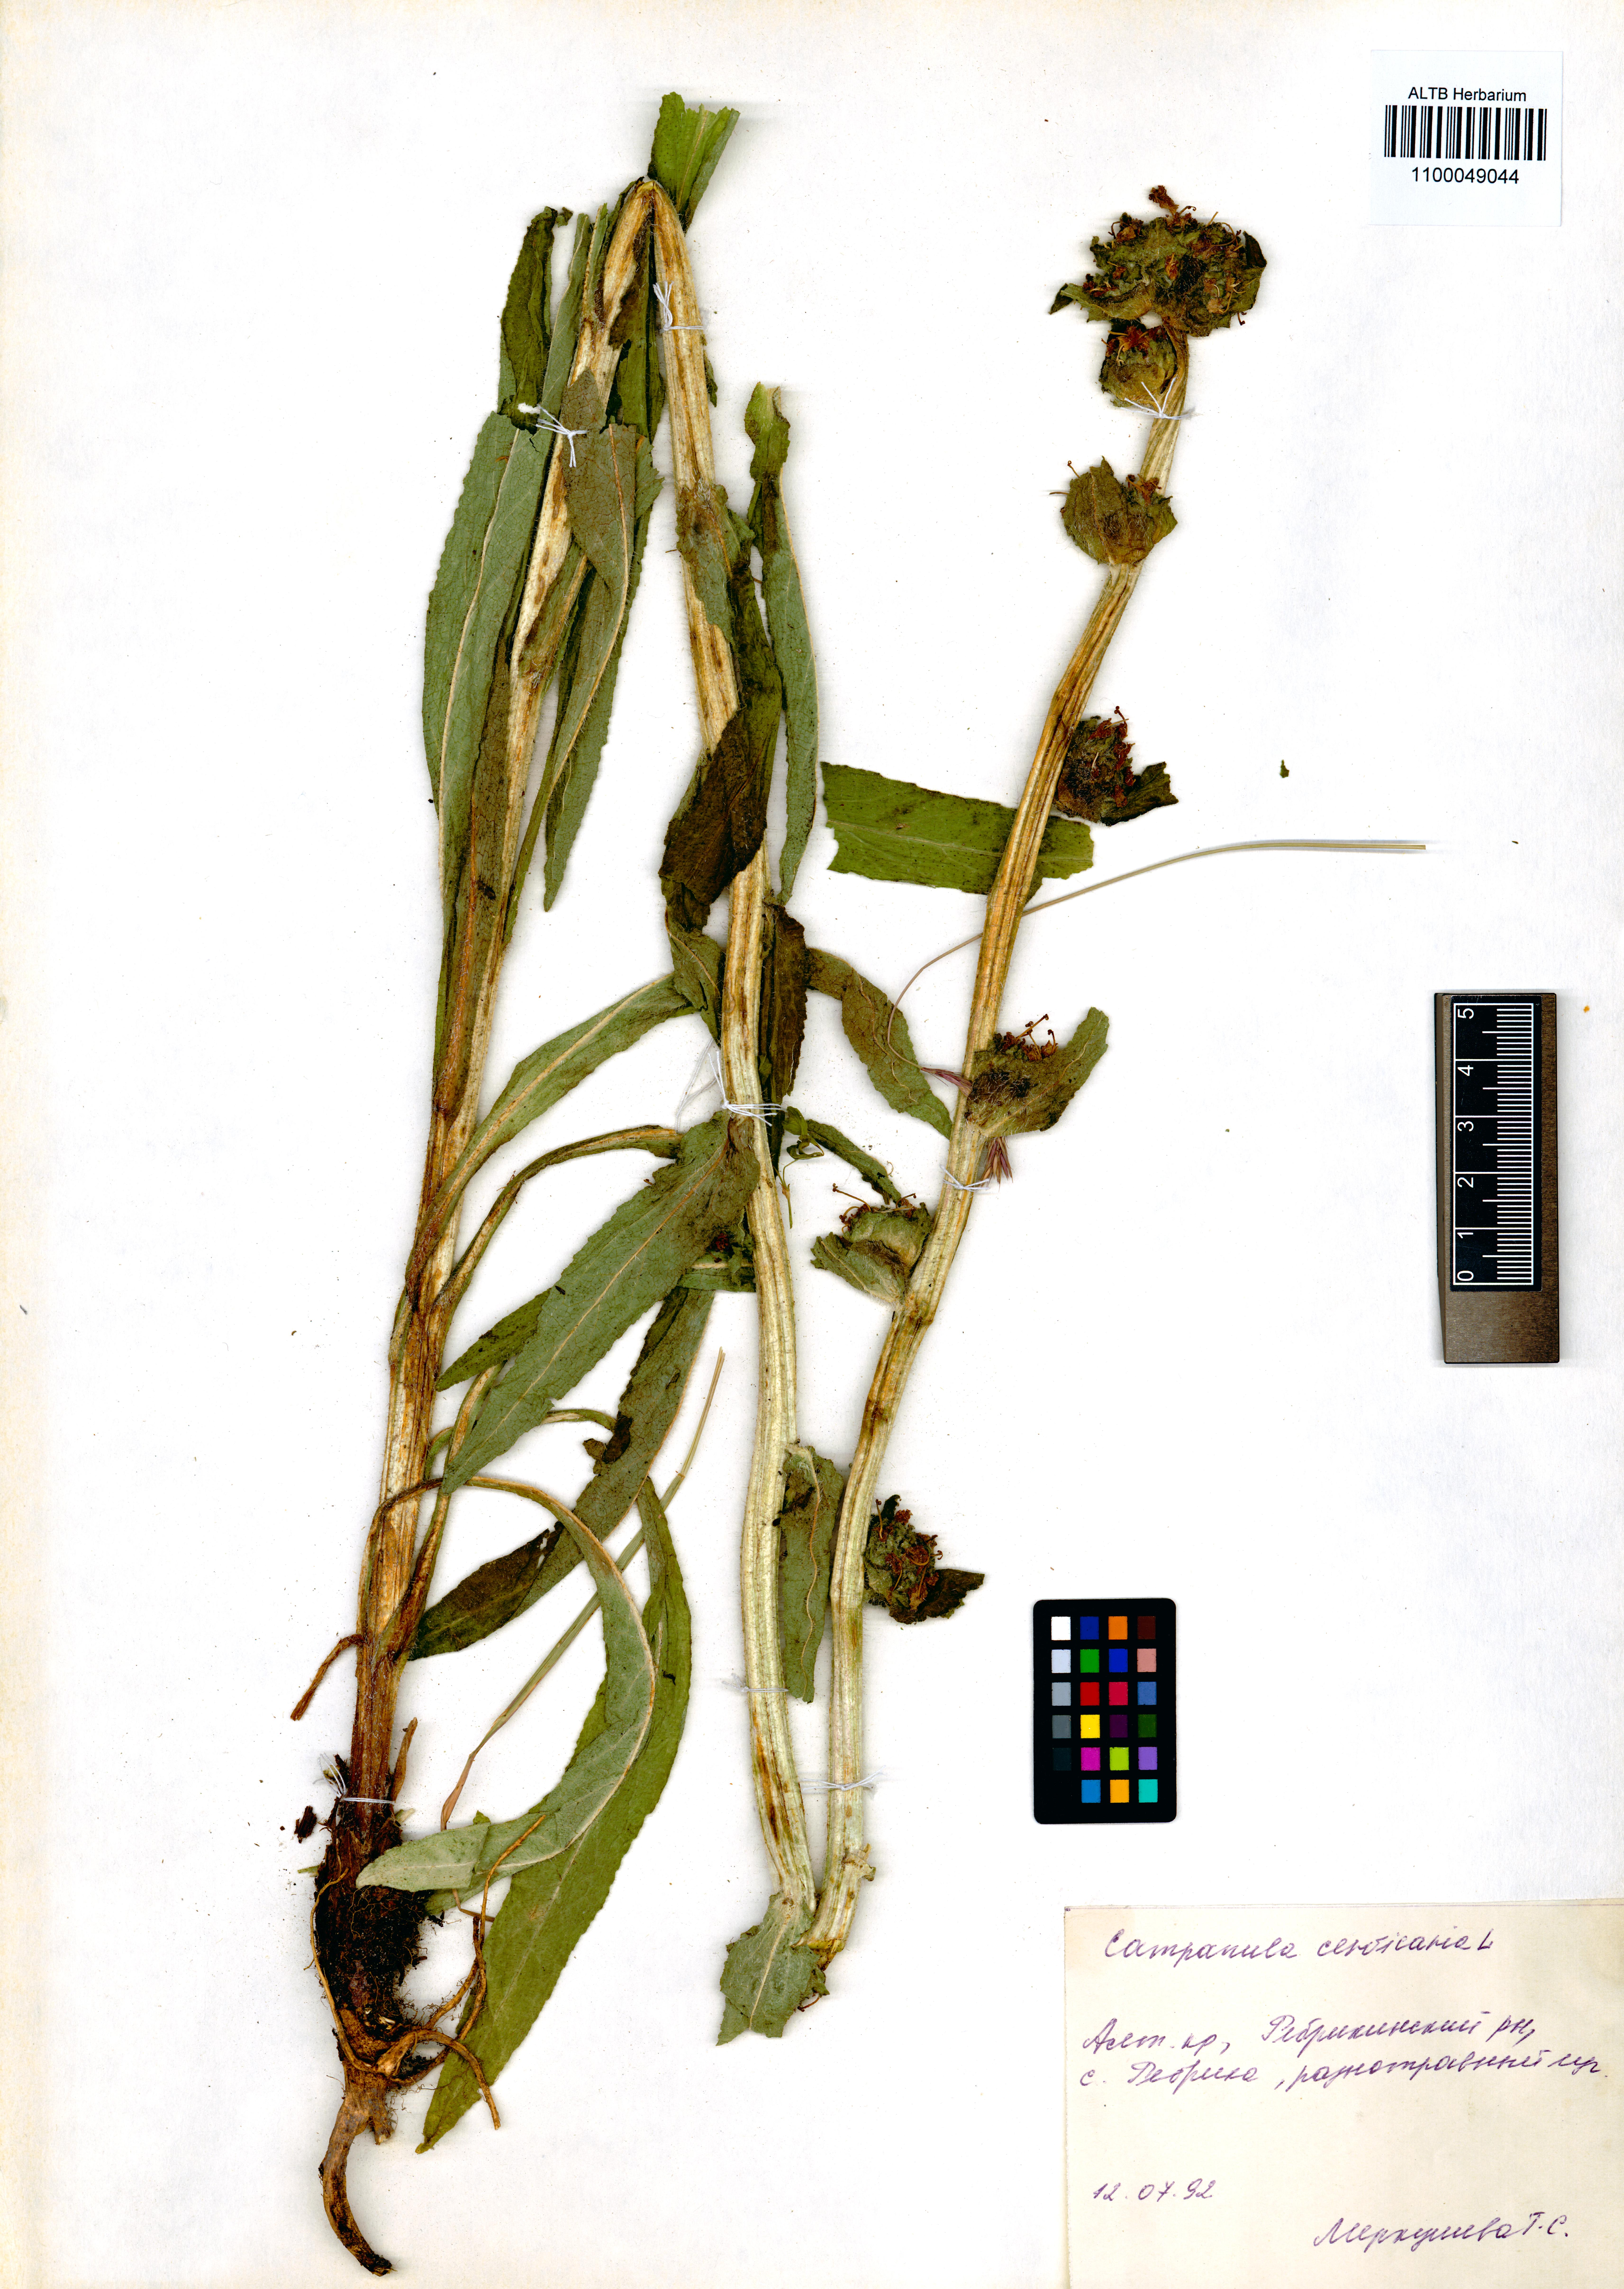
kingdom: Plantae
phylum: Tracheophyta
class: Magnoliopsida
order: Asterales
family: Campanulaceae
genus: Campanula
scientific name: Campanula cervicaria
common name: Bristly bellflower
